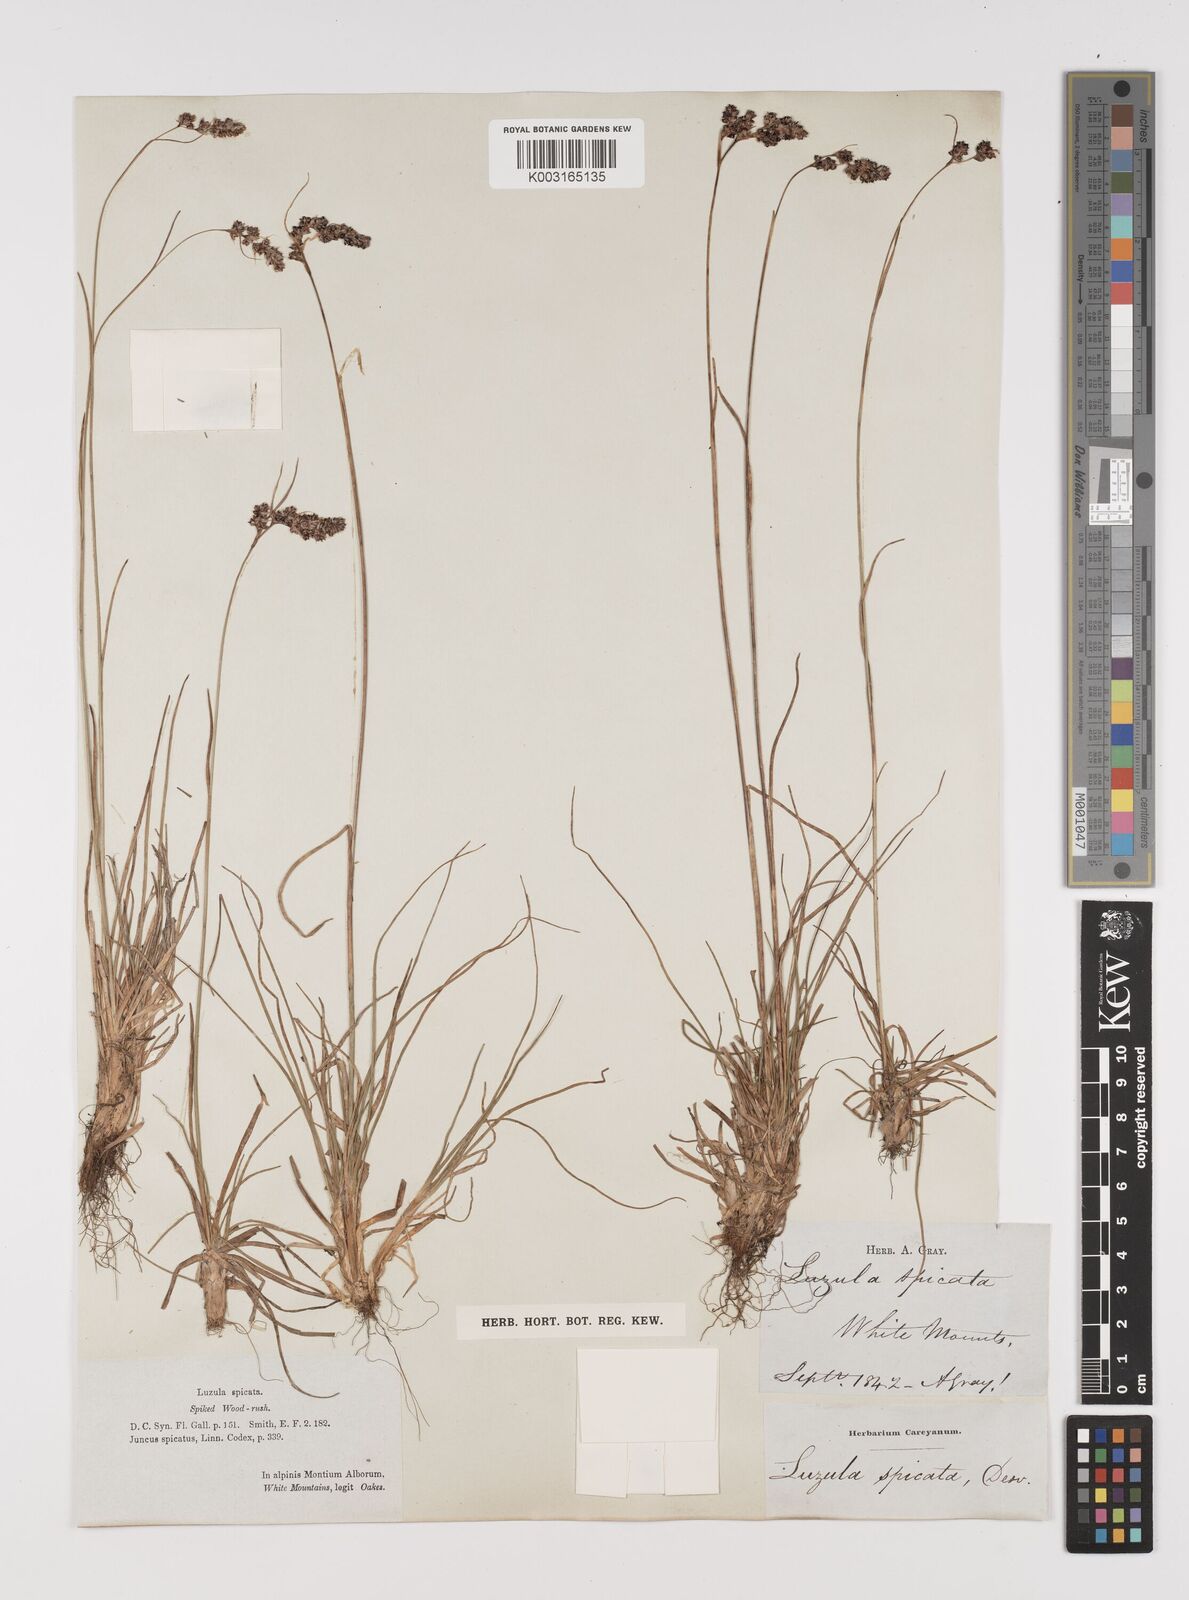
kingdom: Plantae
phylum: Tracheophyta
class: Liliopsida
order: Poales
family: Juncaceae
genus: Luzula
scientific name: Luzula spicata
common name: Spiked wood-rush
